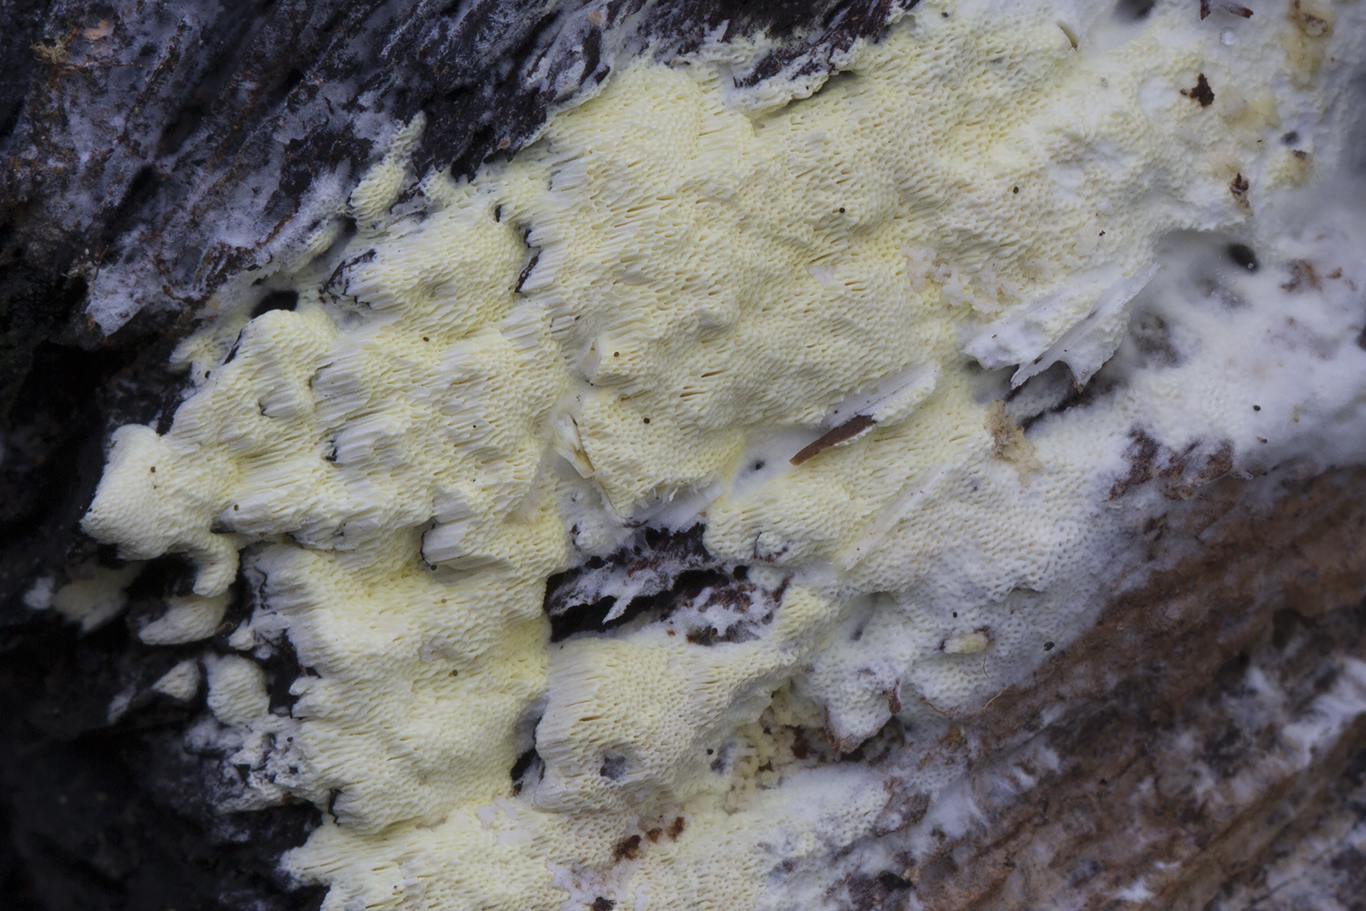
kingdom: Fungi
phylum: Basidiomycota
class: Agaricomycetes
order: Polyporales
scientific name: Polyporales
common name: poresvampordenen
